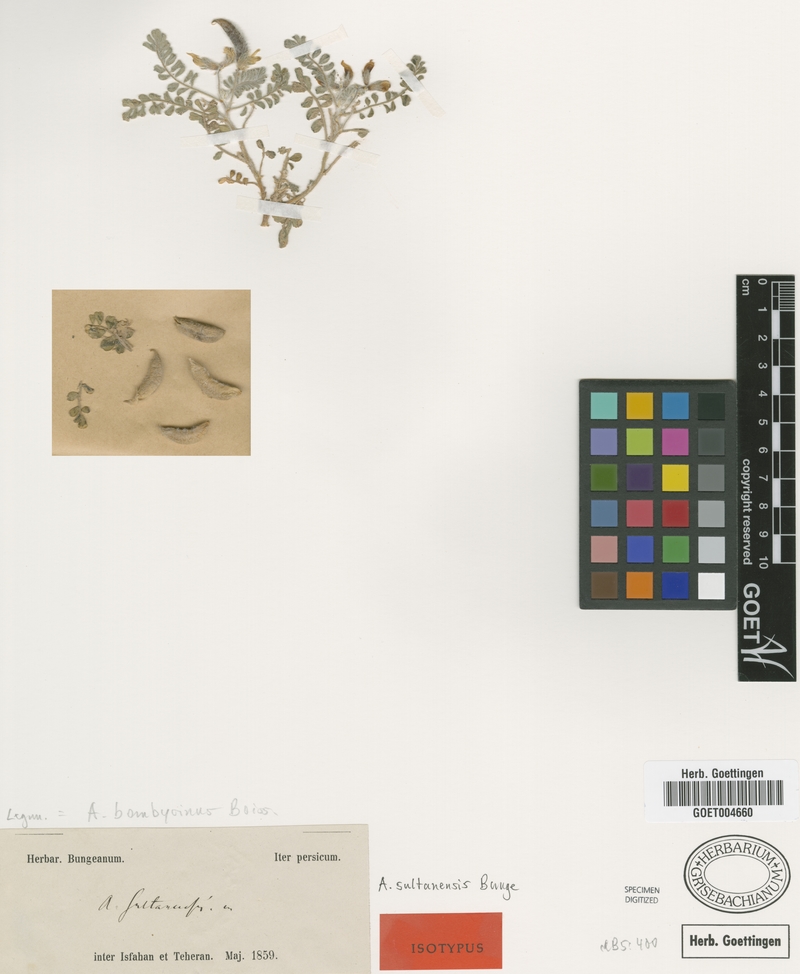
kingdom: Plantae
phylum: Tracheophyta
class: Magnoliopsida
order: Fabales
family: Fabaceae
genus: Astragalus
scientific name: Astragalus bombycinus
